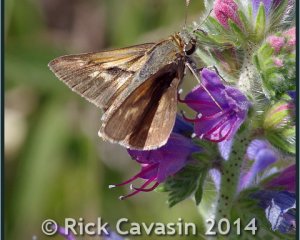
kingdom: Animalia
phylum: Arthropoda
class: Insecta
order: Lepidoptera
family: Hesperiidae
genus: Polites
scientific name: Polites
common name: Crossline Skipper
